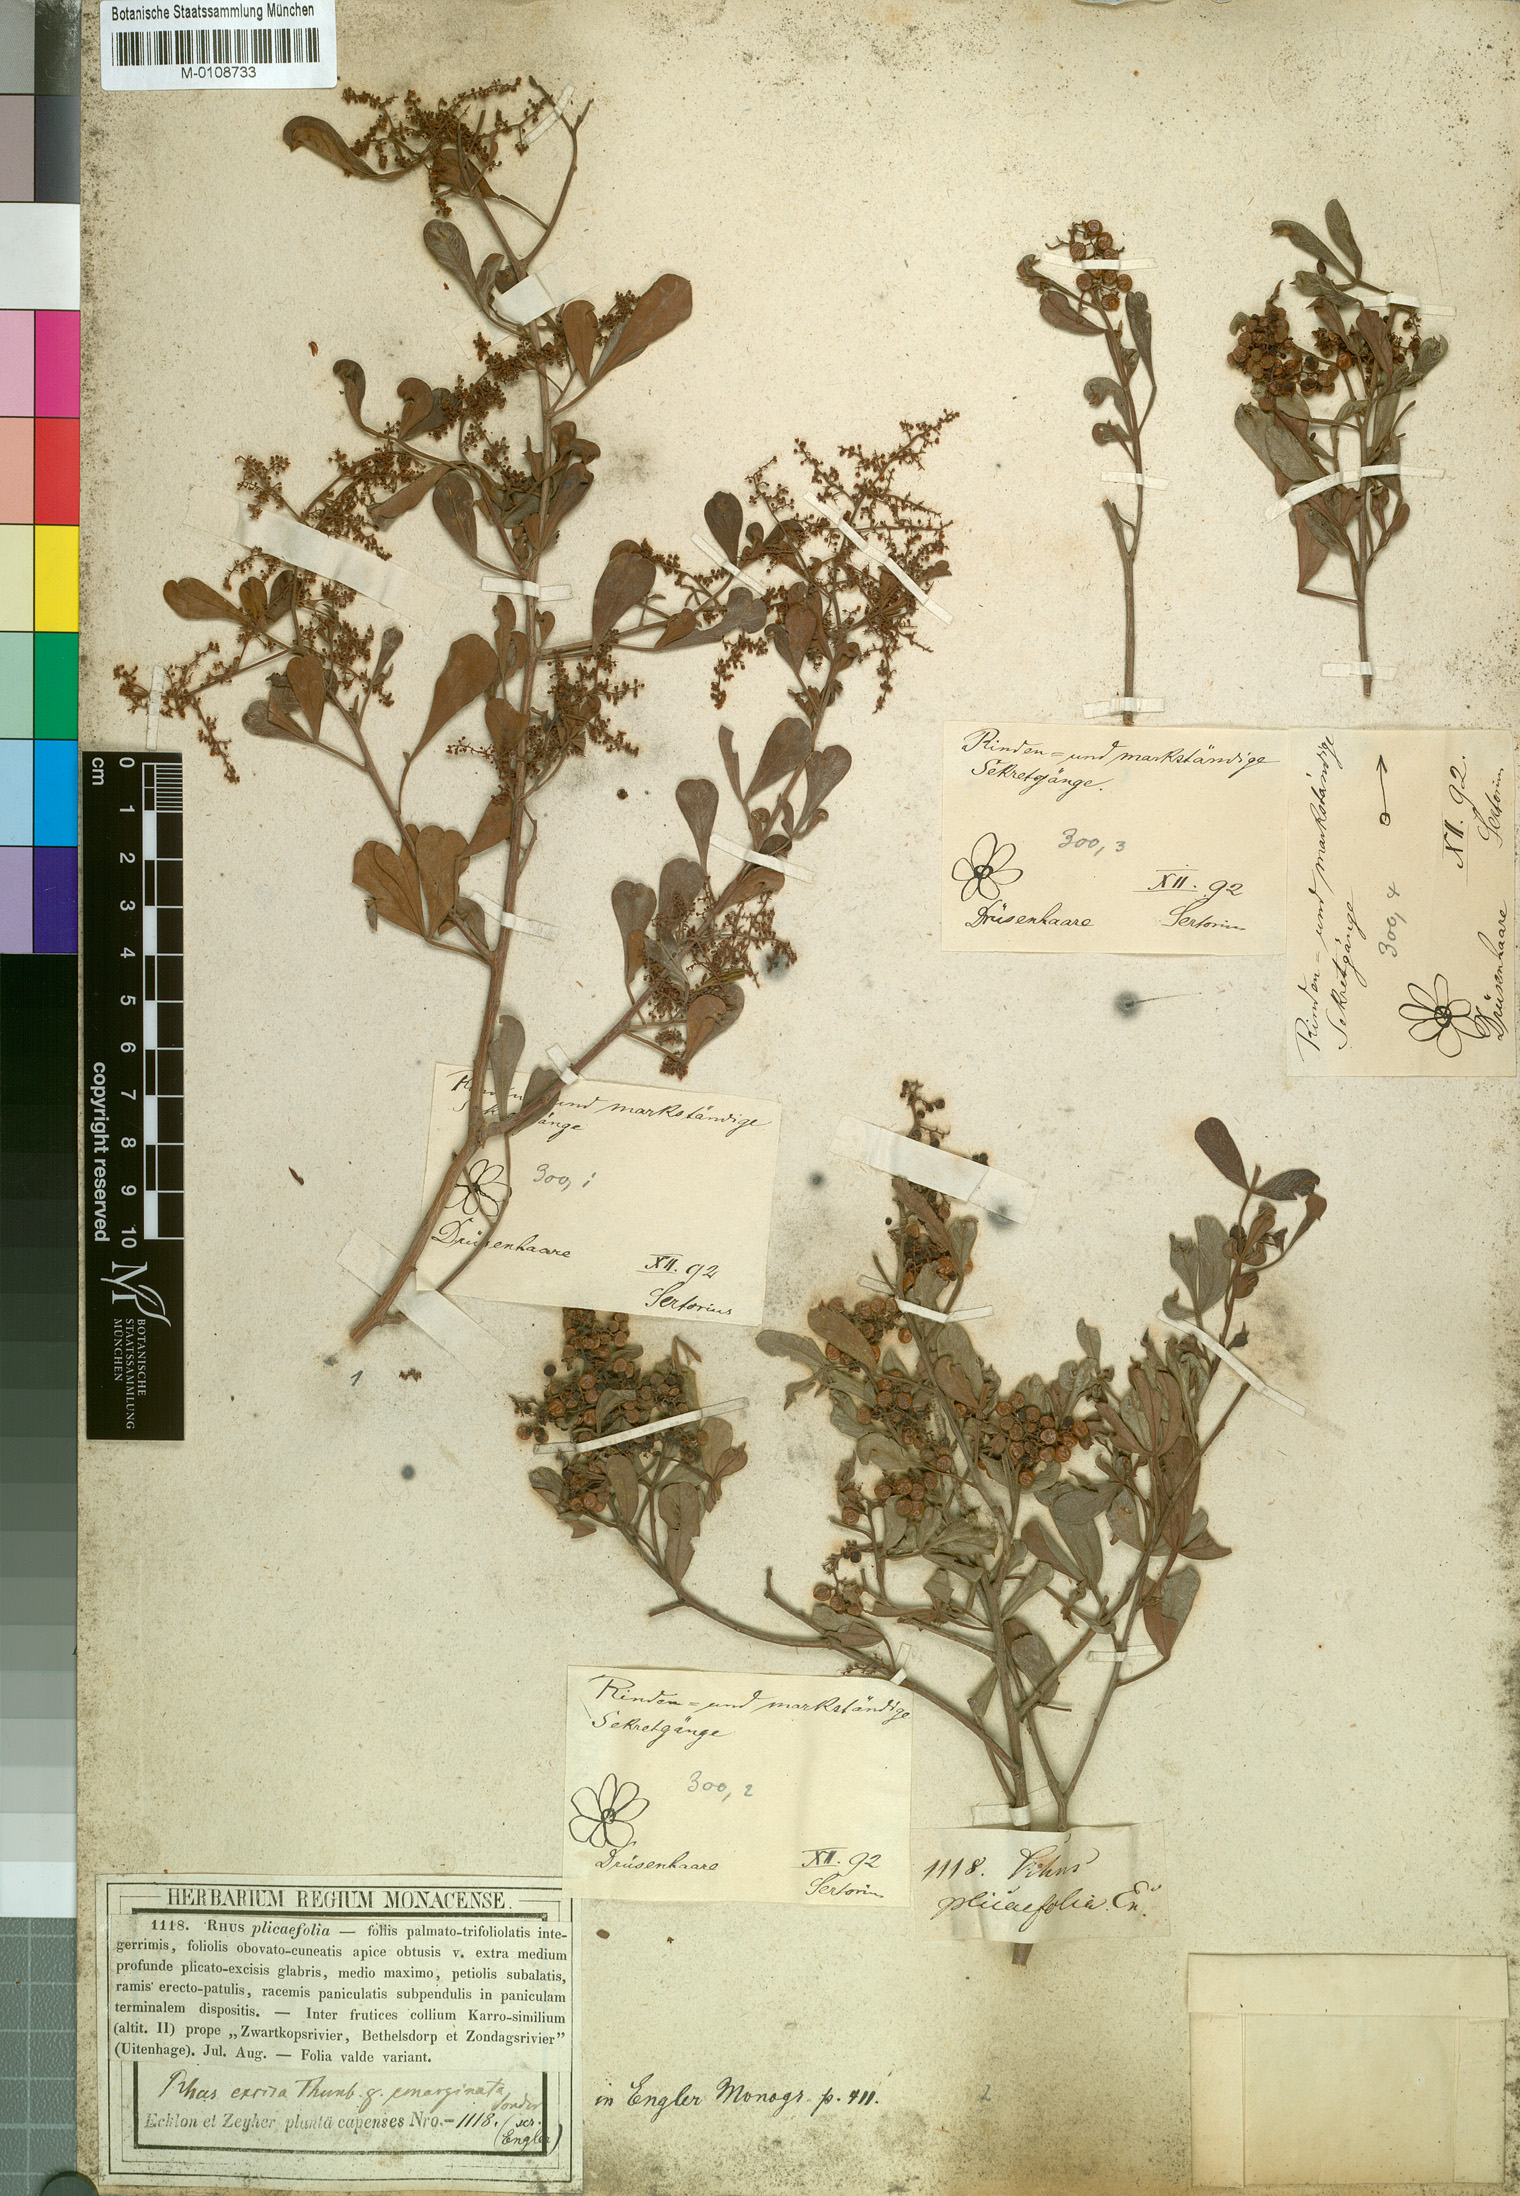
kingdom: Plantae
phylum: Tracheophyta
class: Magnoliopsida
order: Sapindales
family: Anacardiaceae
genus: Toxicodendron
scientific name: Toxicodendron radicans
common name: Poison ivy
